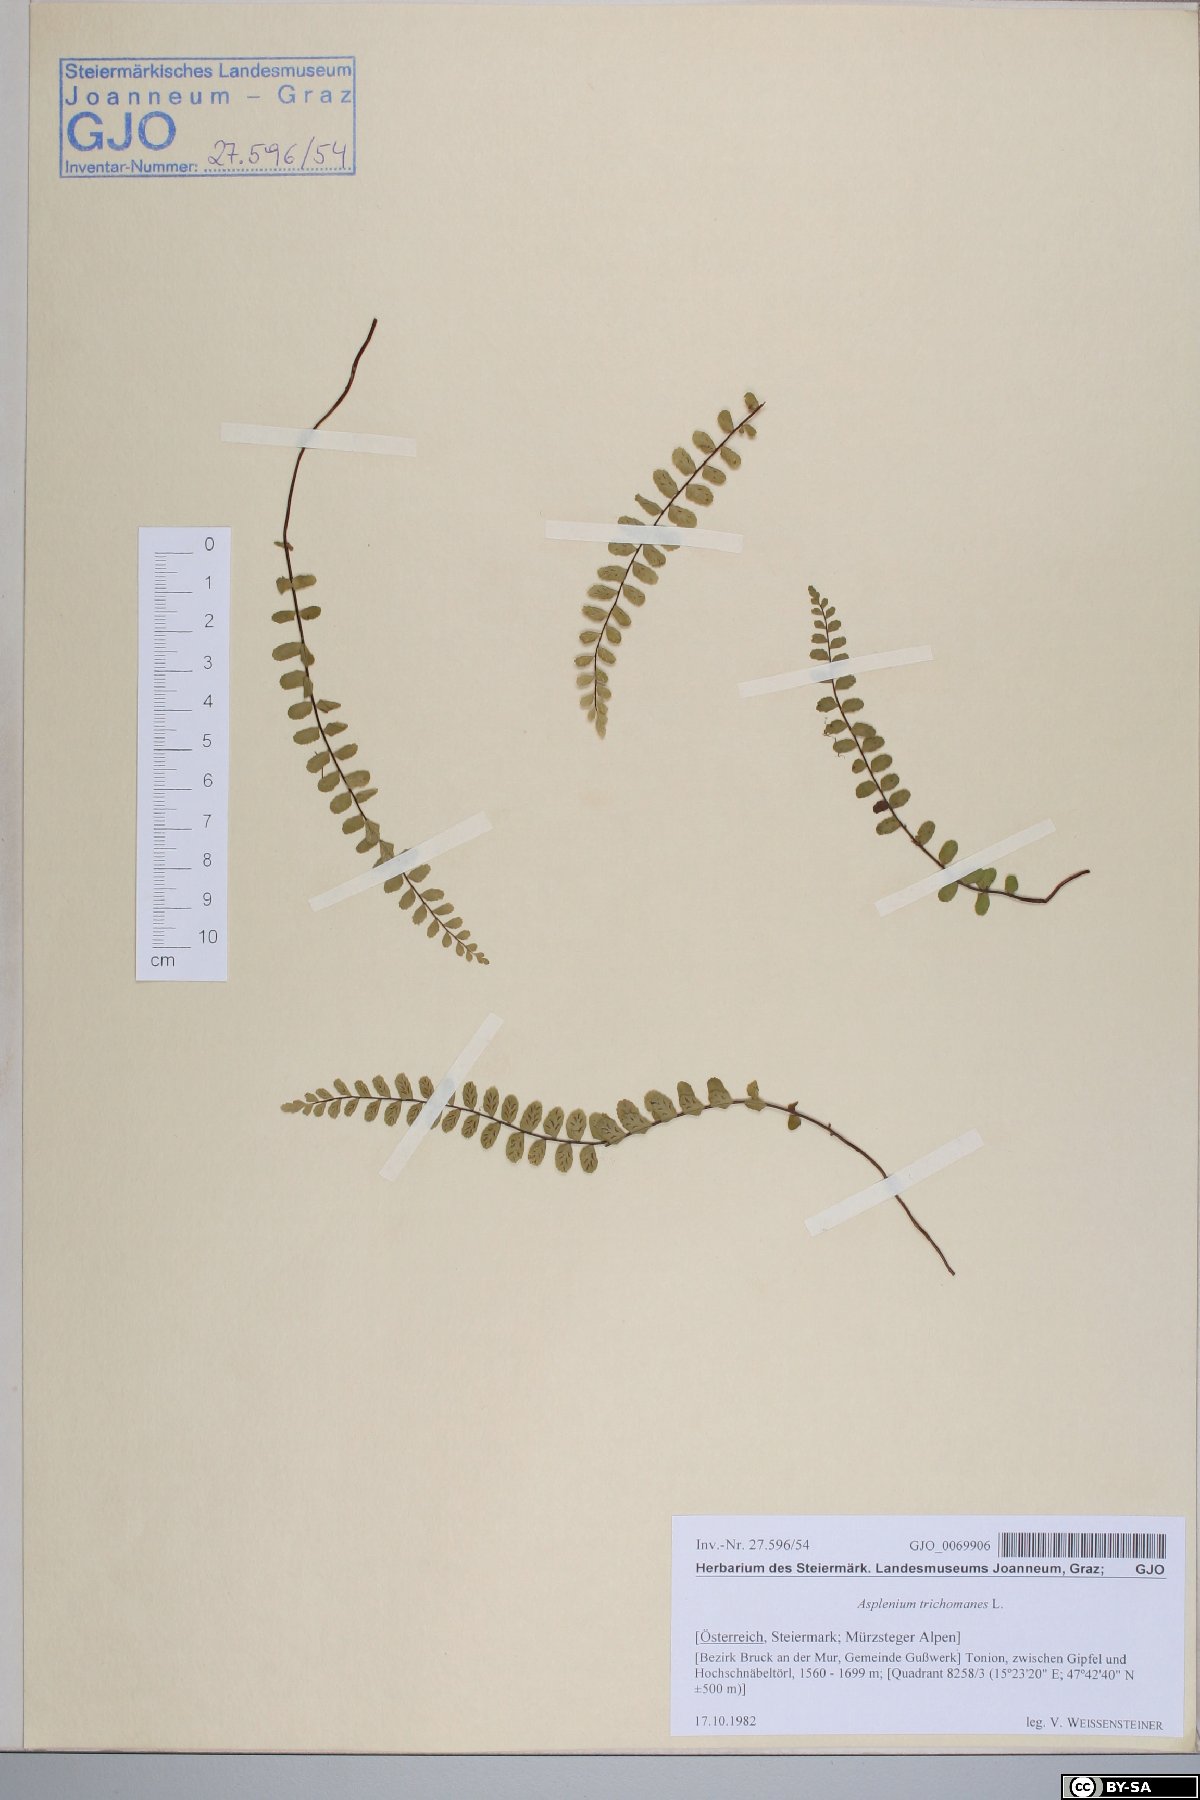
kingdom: Plantae
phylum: Tracheophyta
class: Polypodiopsida
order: Polypodiales
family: Aspleniaceae
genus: Asplenium
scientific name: Asplenium trichomanes
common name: Maidenhair spleenwort
